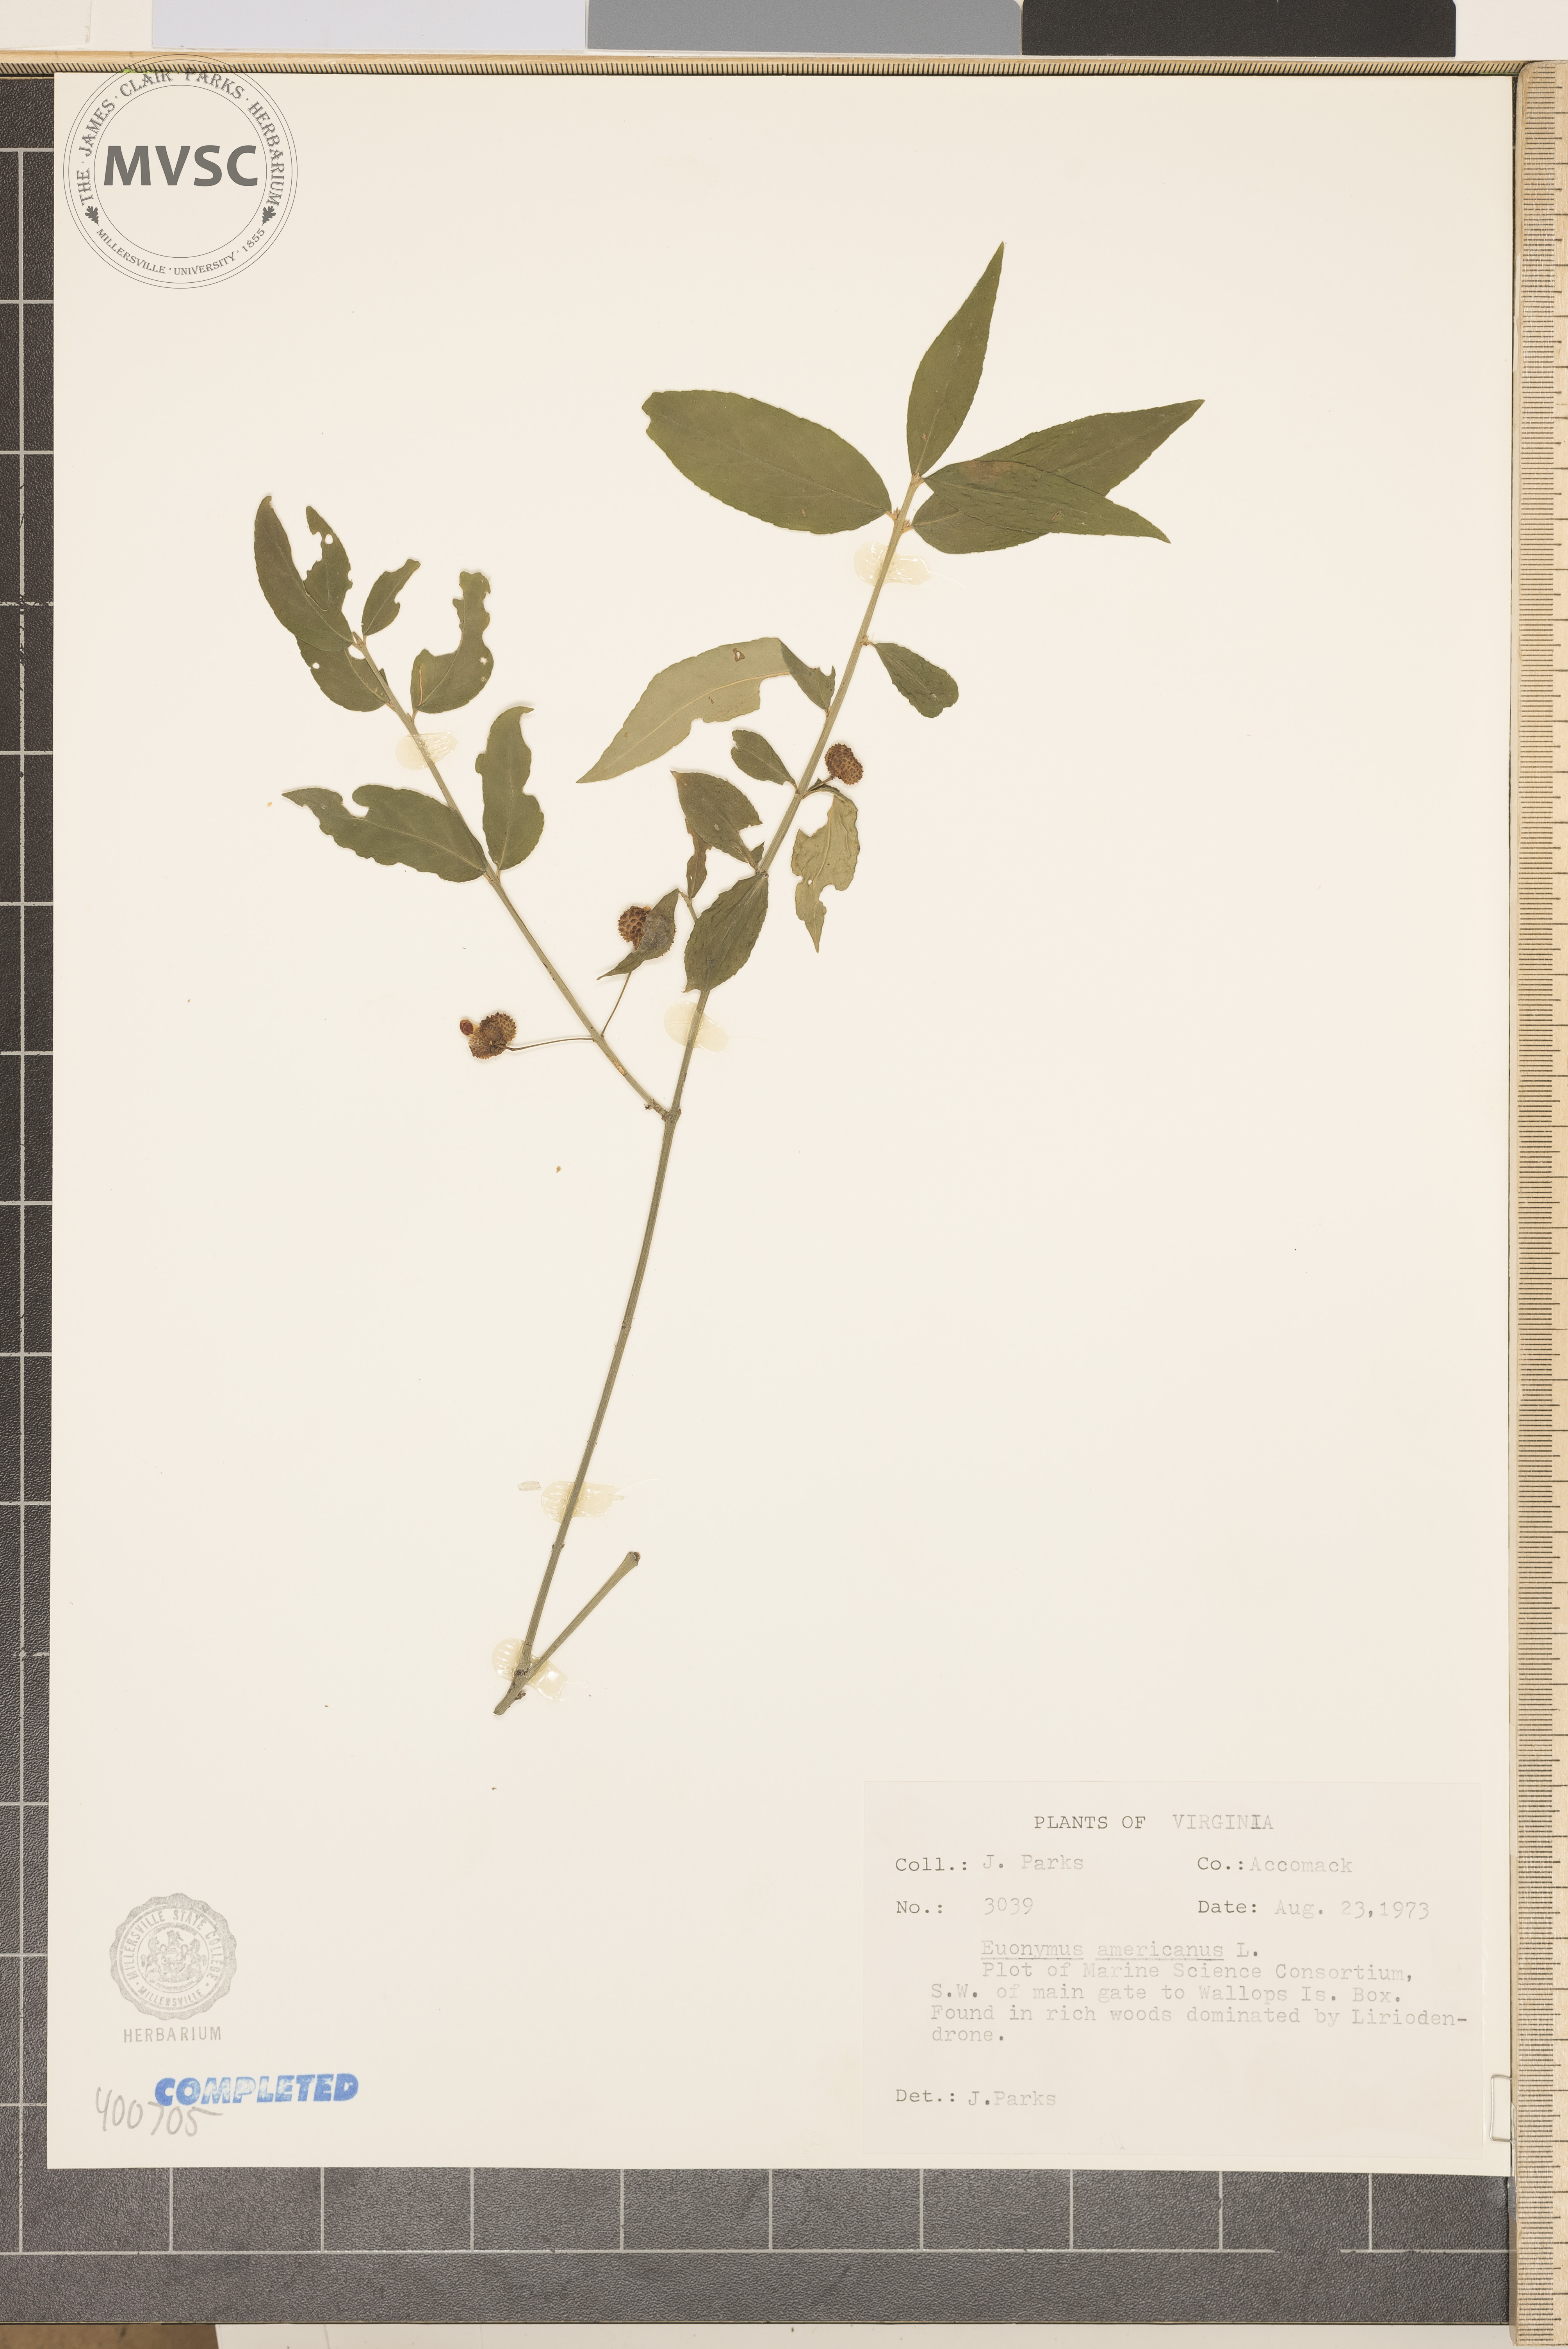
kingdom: Plantae
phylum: Tracheophyta
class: Magnoliopsida
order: Celastrales
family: Celastraceae
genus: Euonymus
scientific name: Euonymus americanus
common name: Bursting-heart
